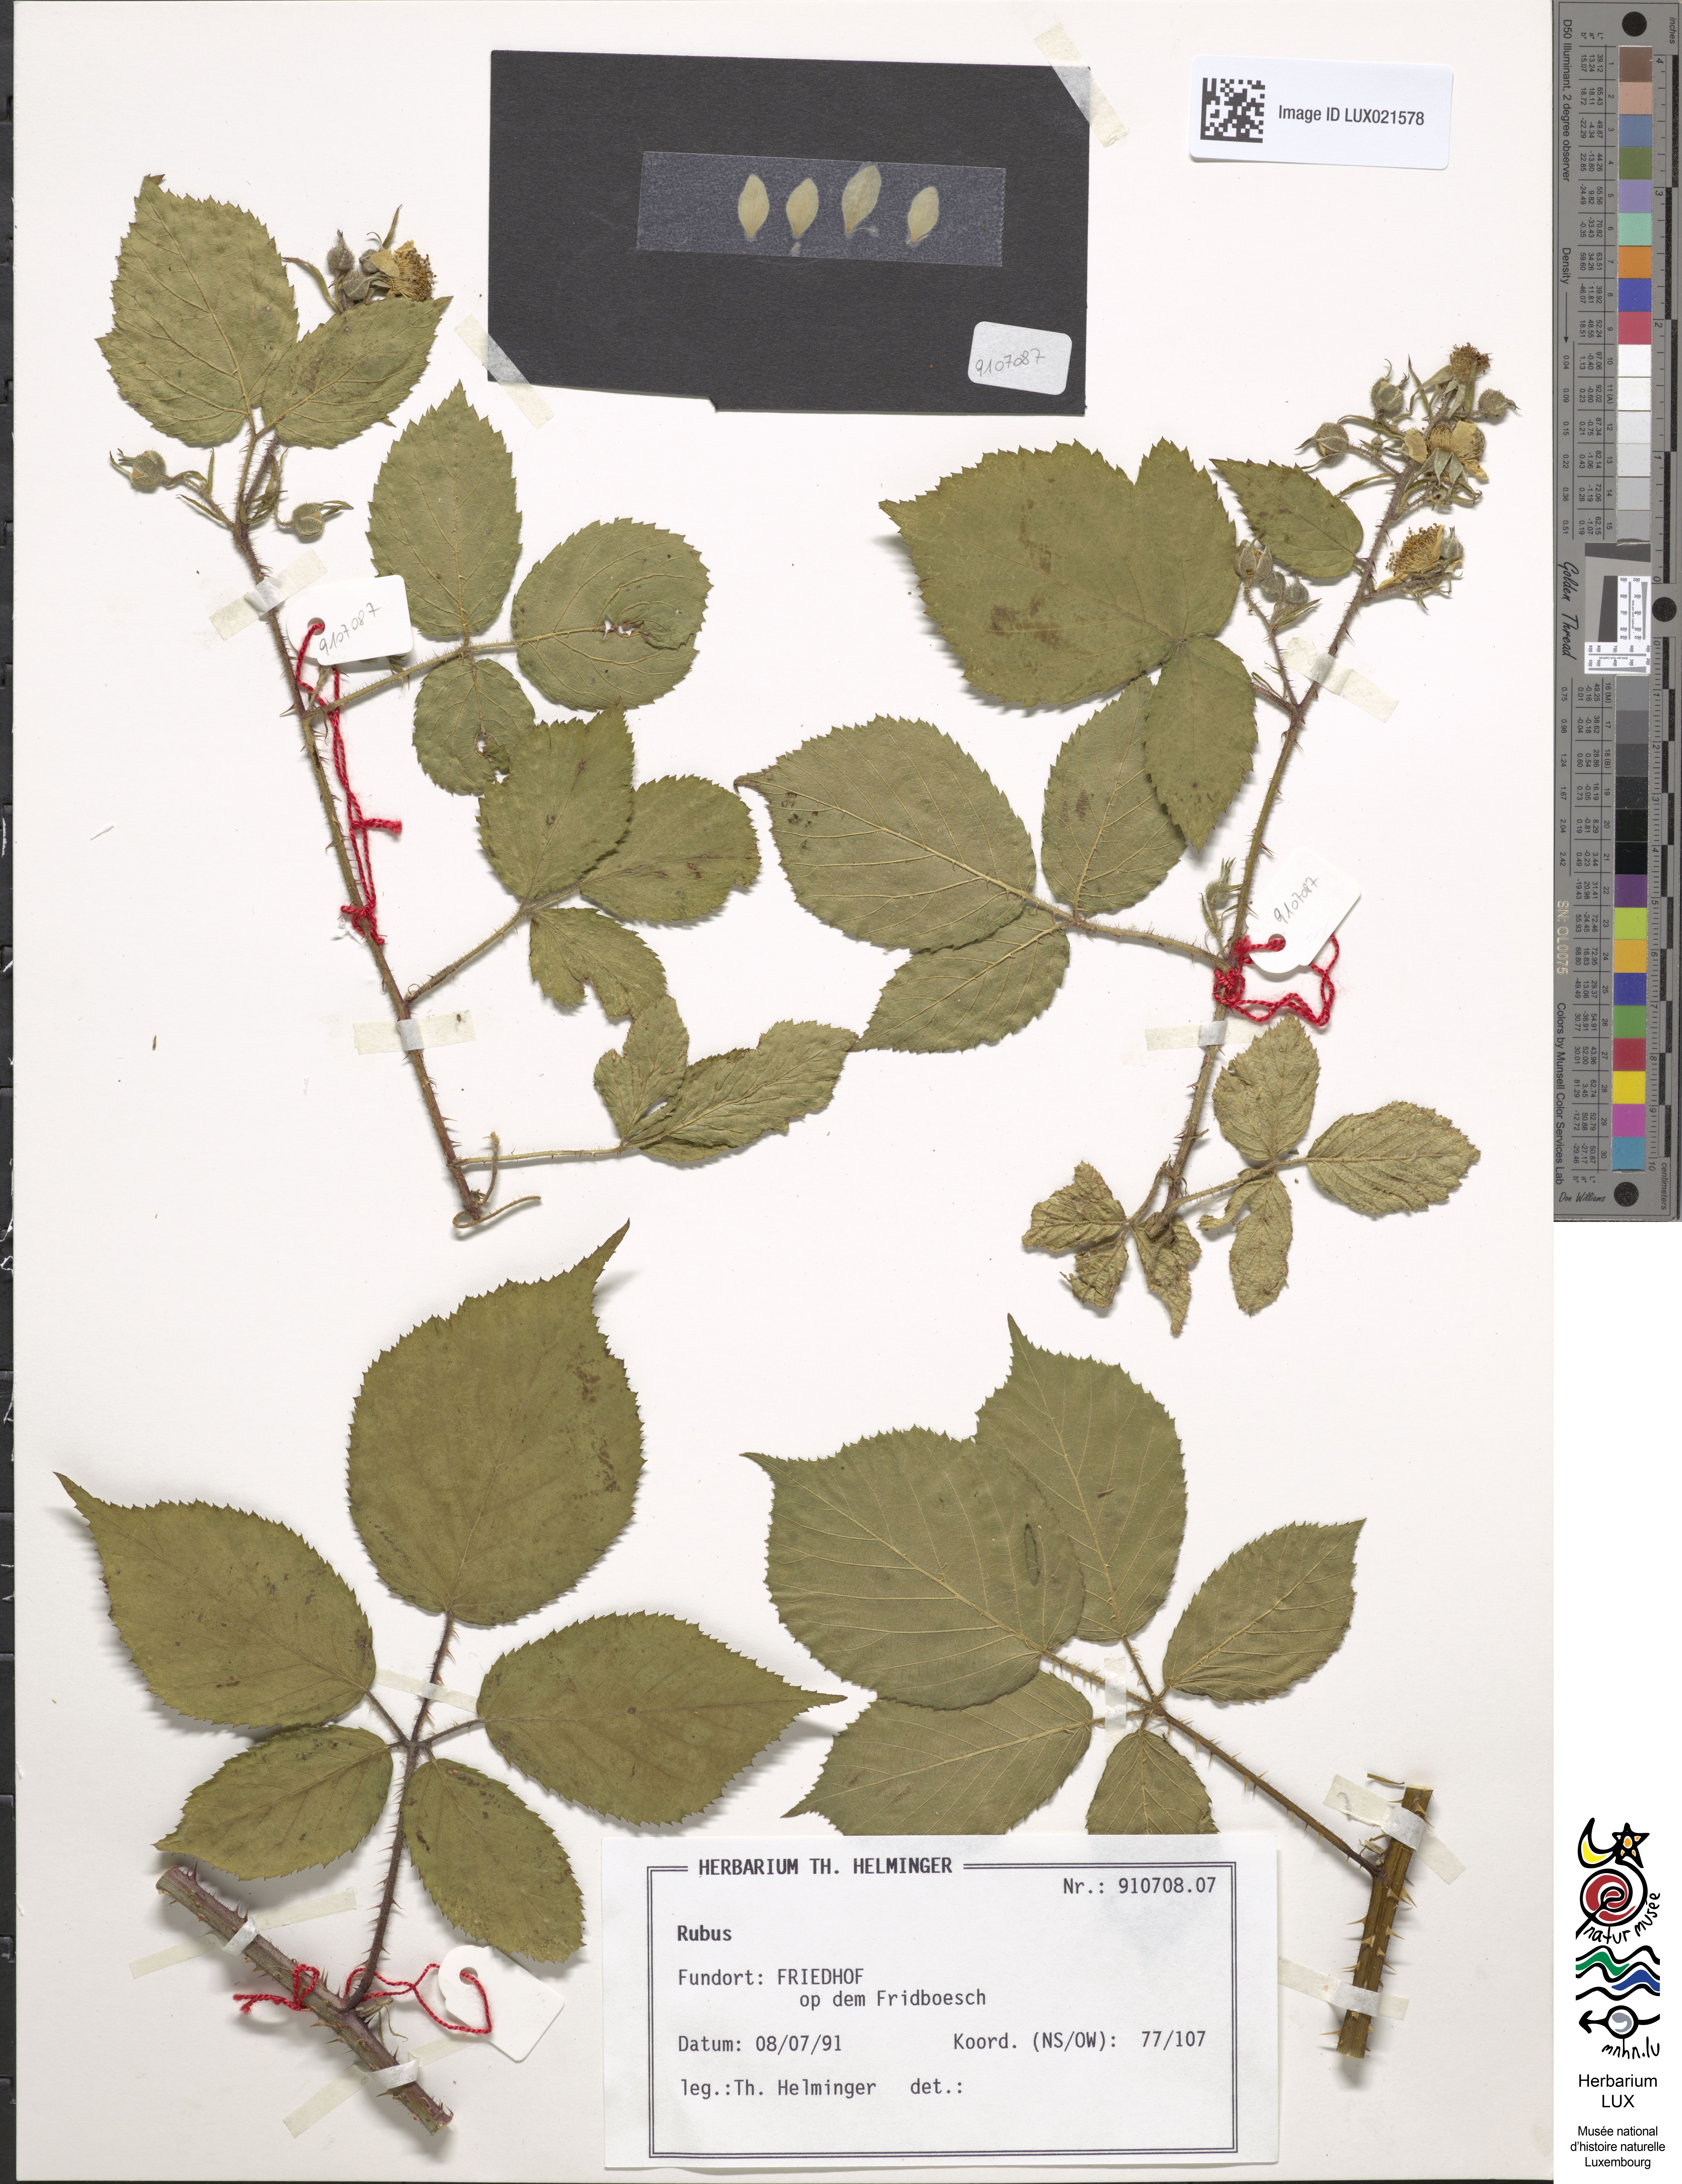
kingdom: Plantae
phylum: Tracheophyta
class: Magnoliopsida
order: Rosales
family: Rosaceae
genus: Rubus
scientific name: Rubus
